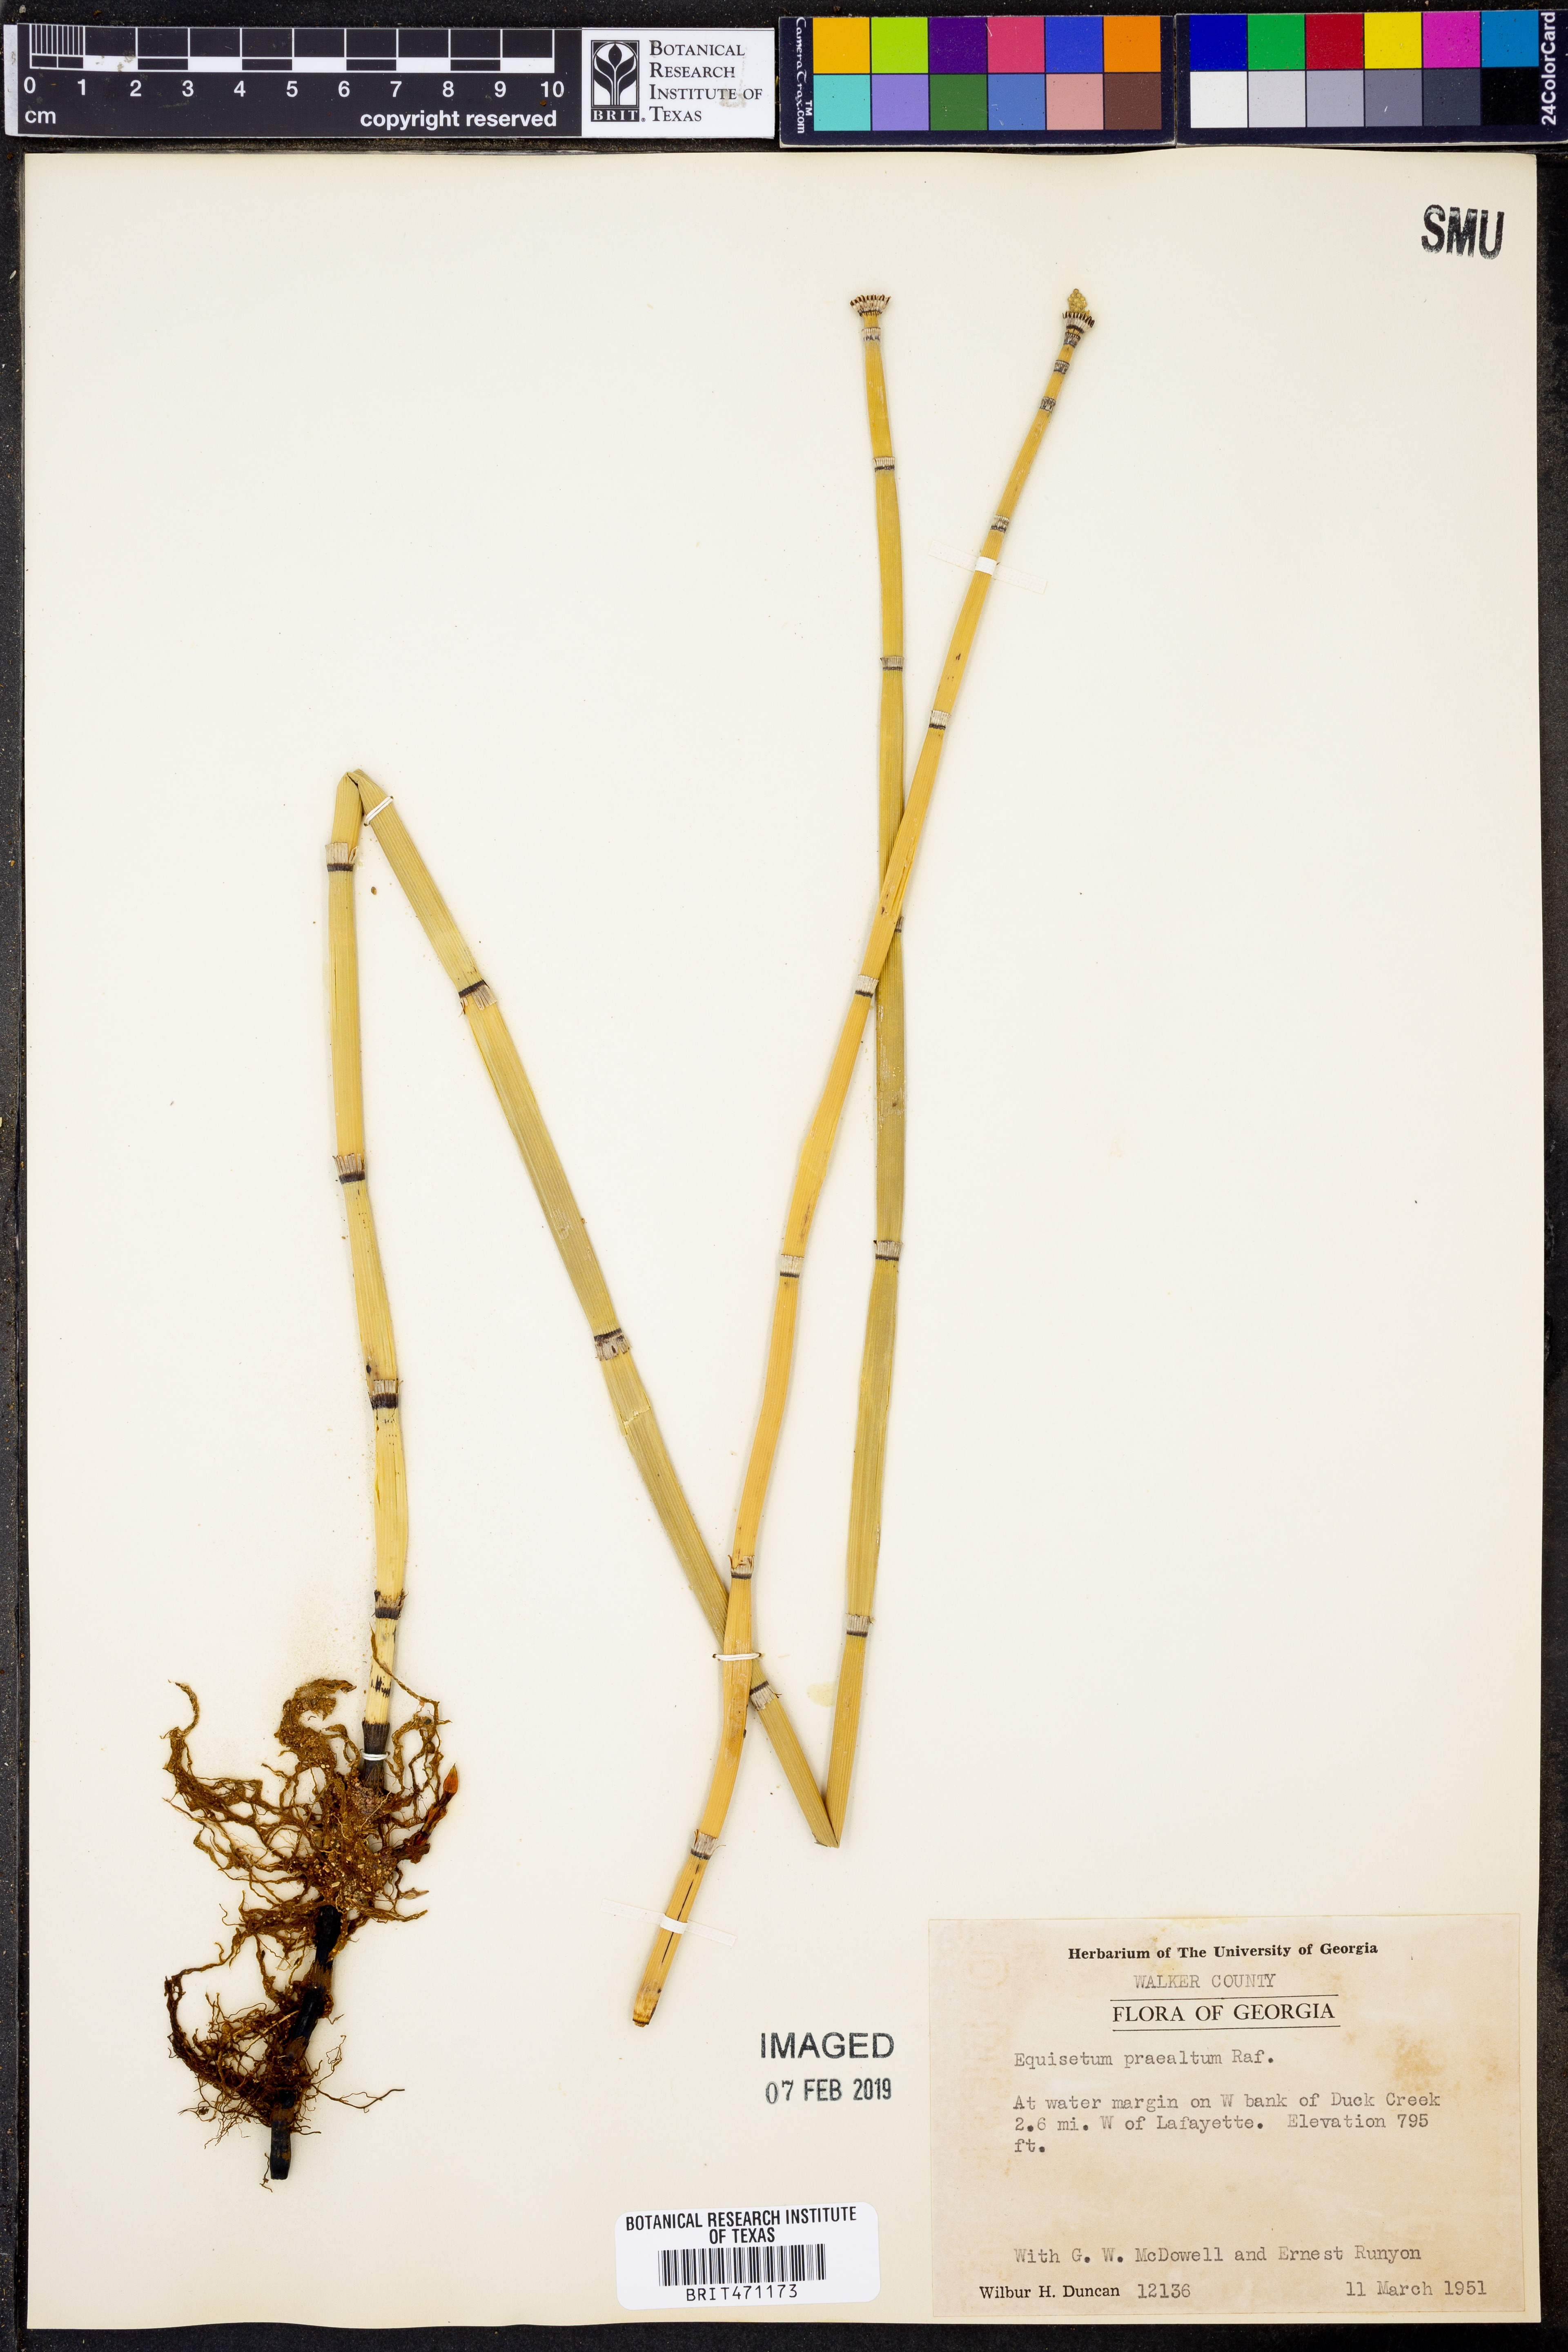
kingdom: Plantae
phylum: Tracheophyta
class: Polypodiopsida
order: Equisetales
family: Equisetaceae
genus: Equisetum
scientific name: Equisetum praealtum
